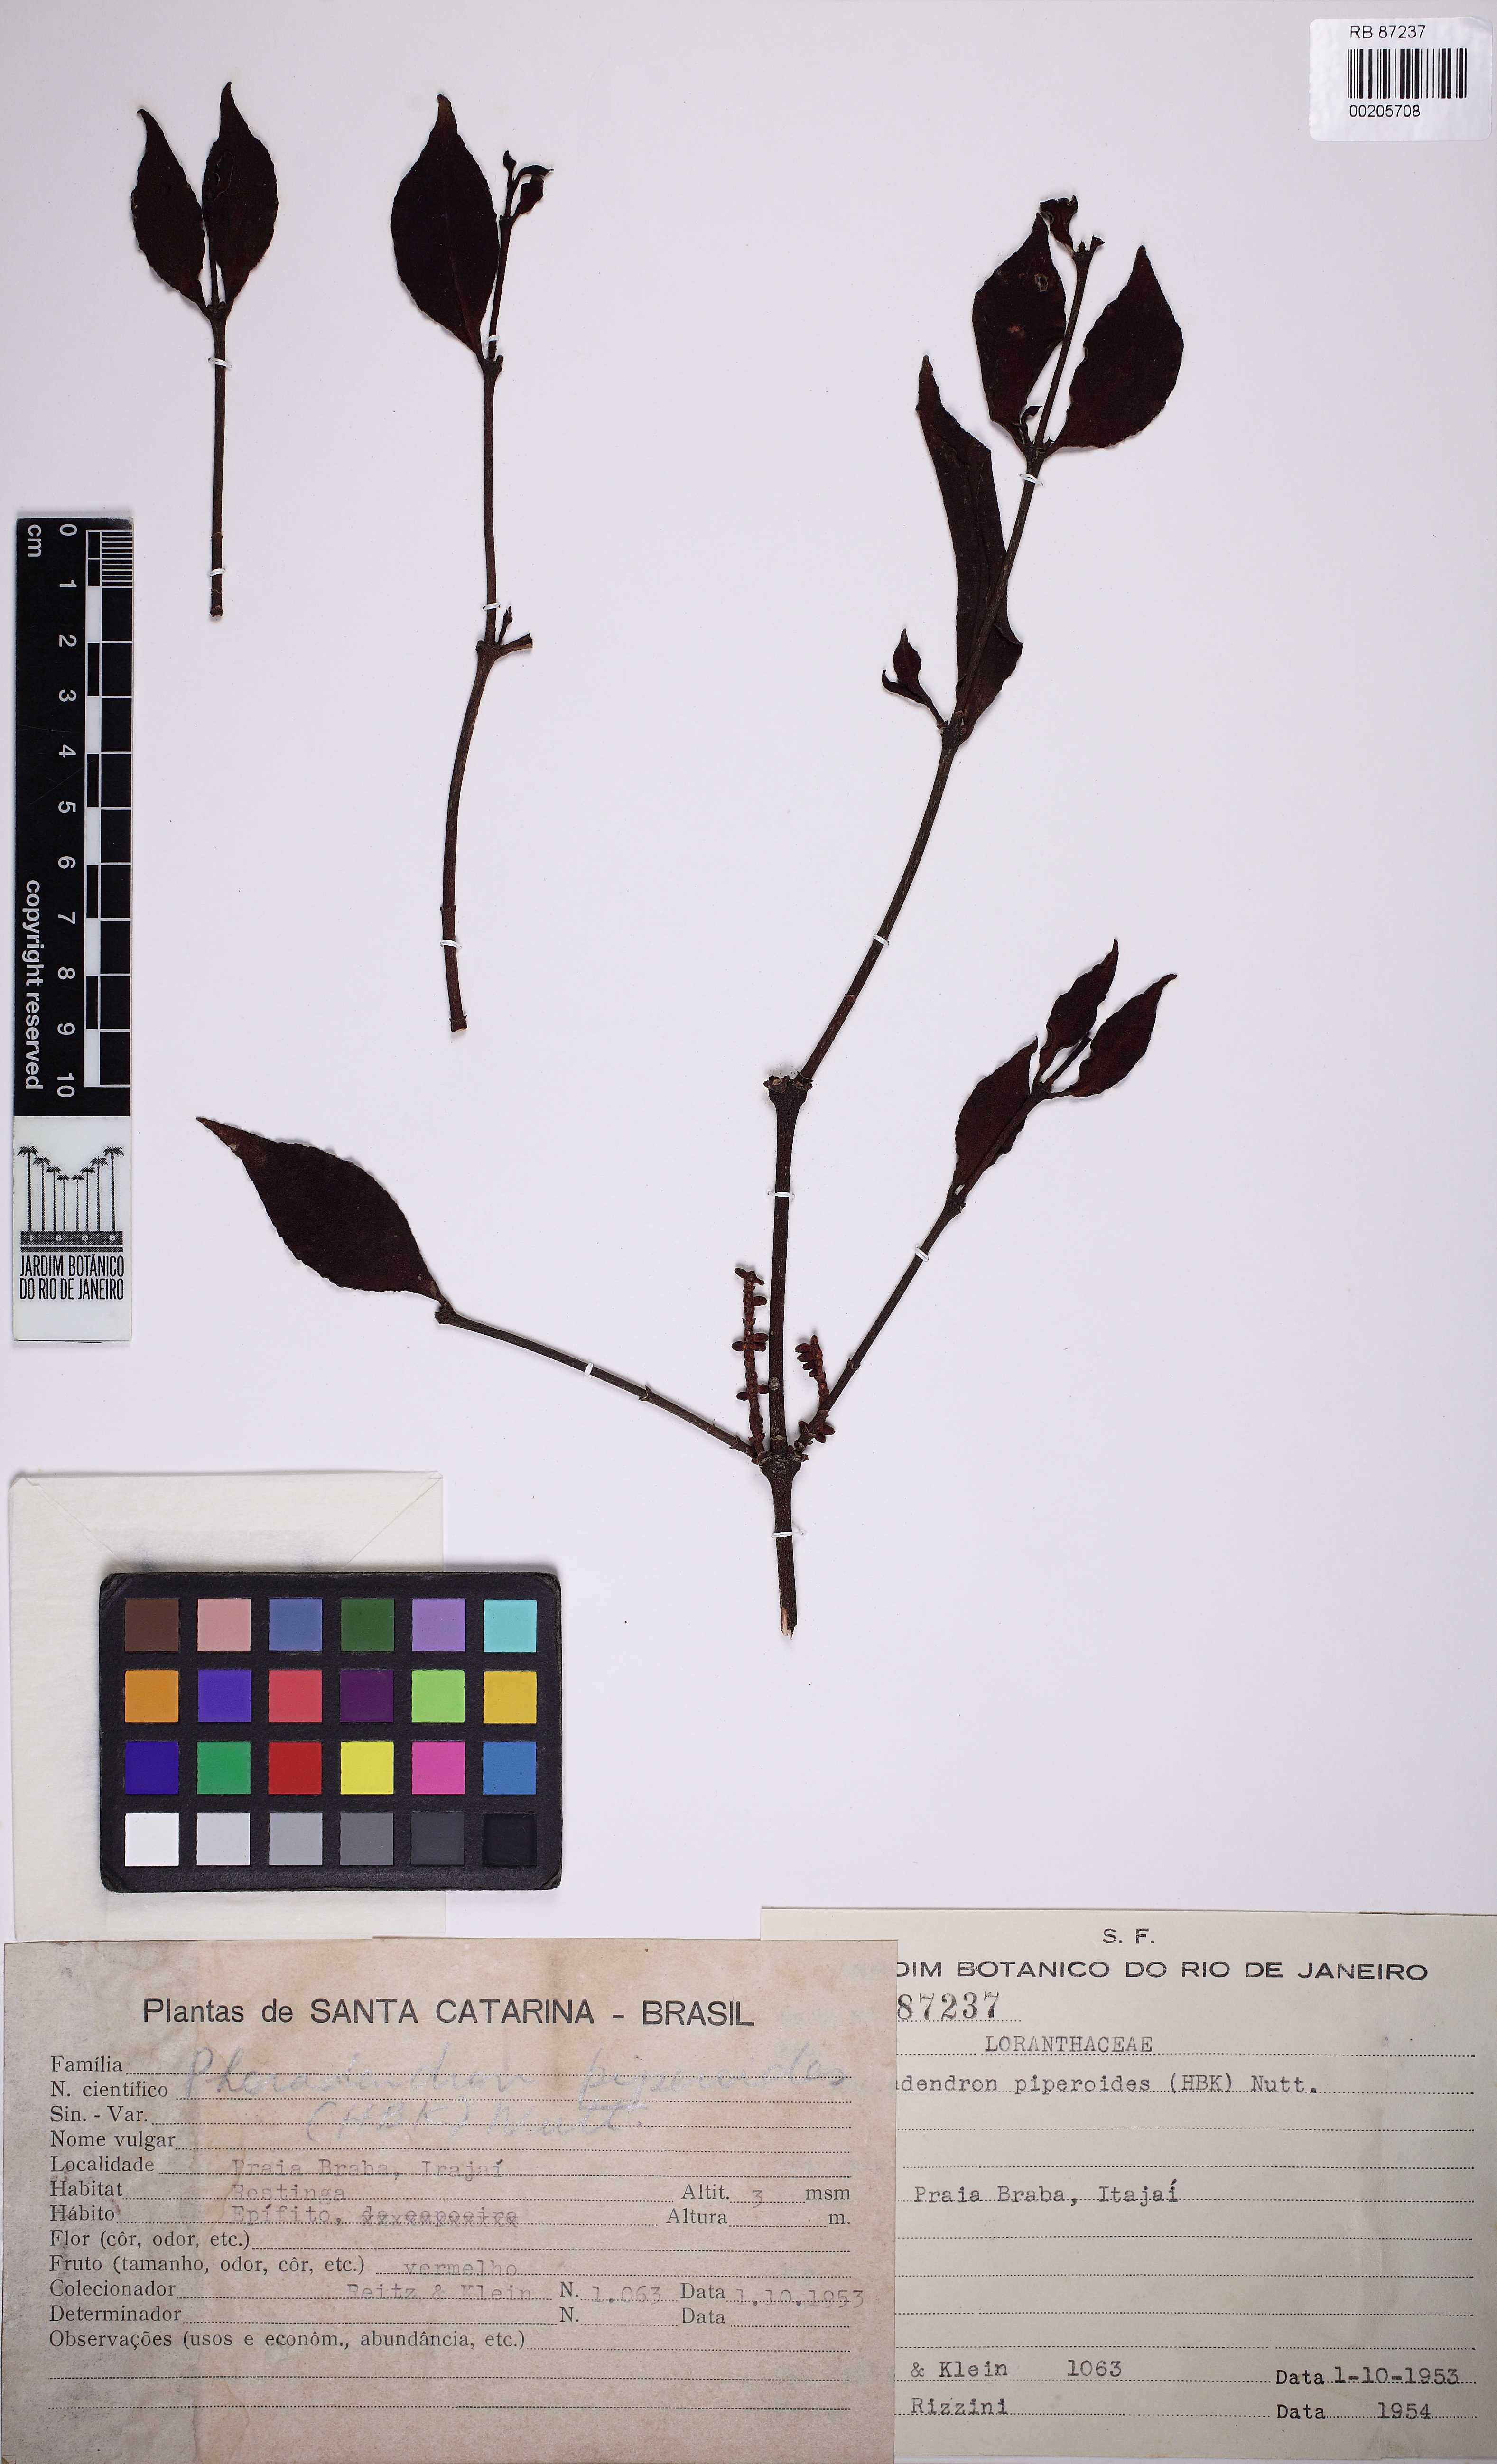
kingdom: Plantae
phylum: Tracheophyta
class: Magnoliopsida
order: Santalales
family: Viscaceae
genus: Phoradendron
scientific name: Phoradendron piperoides
